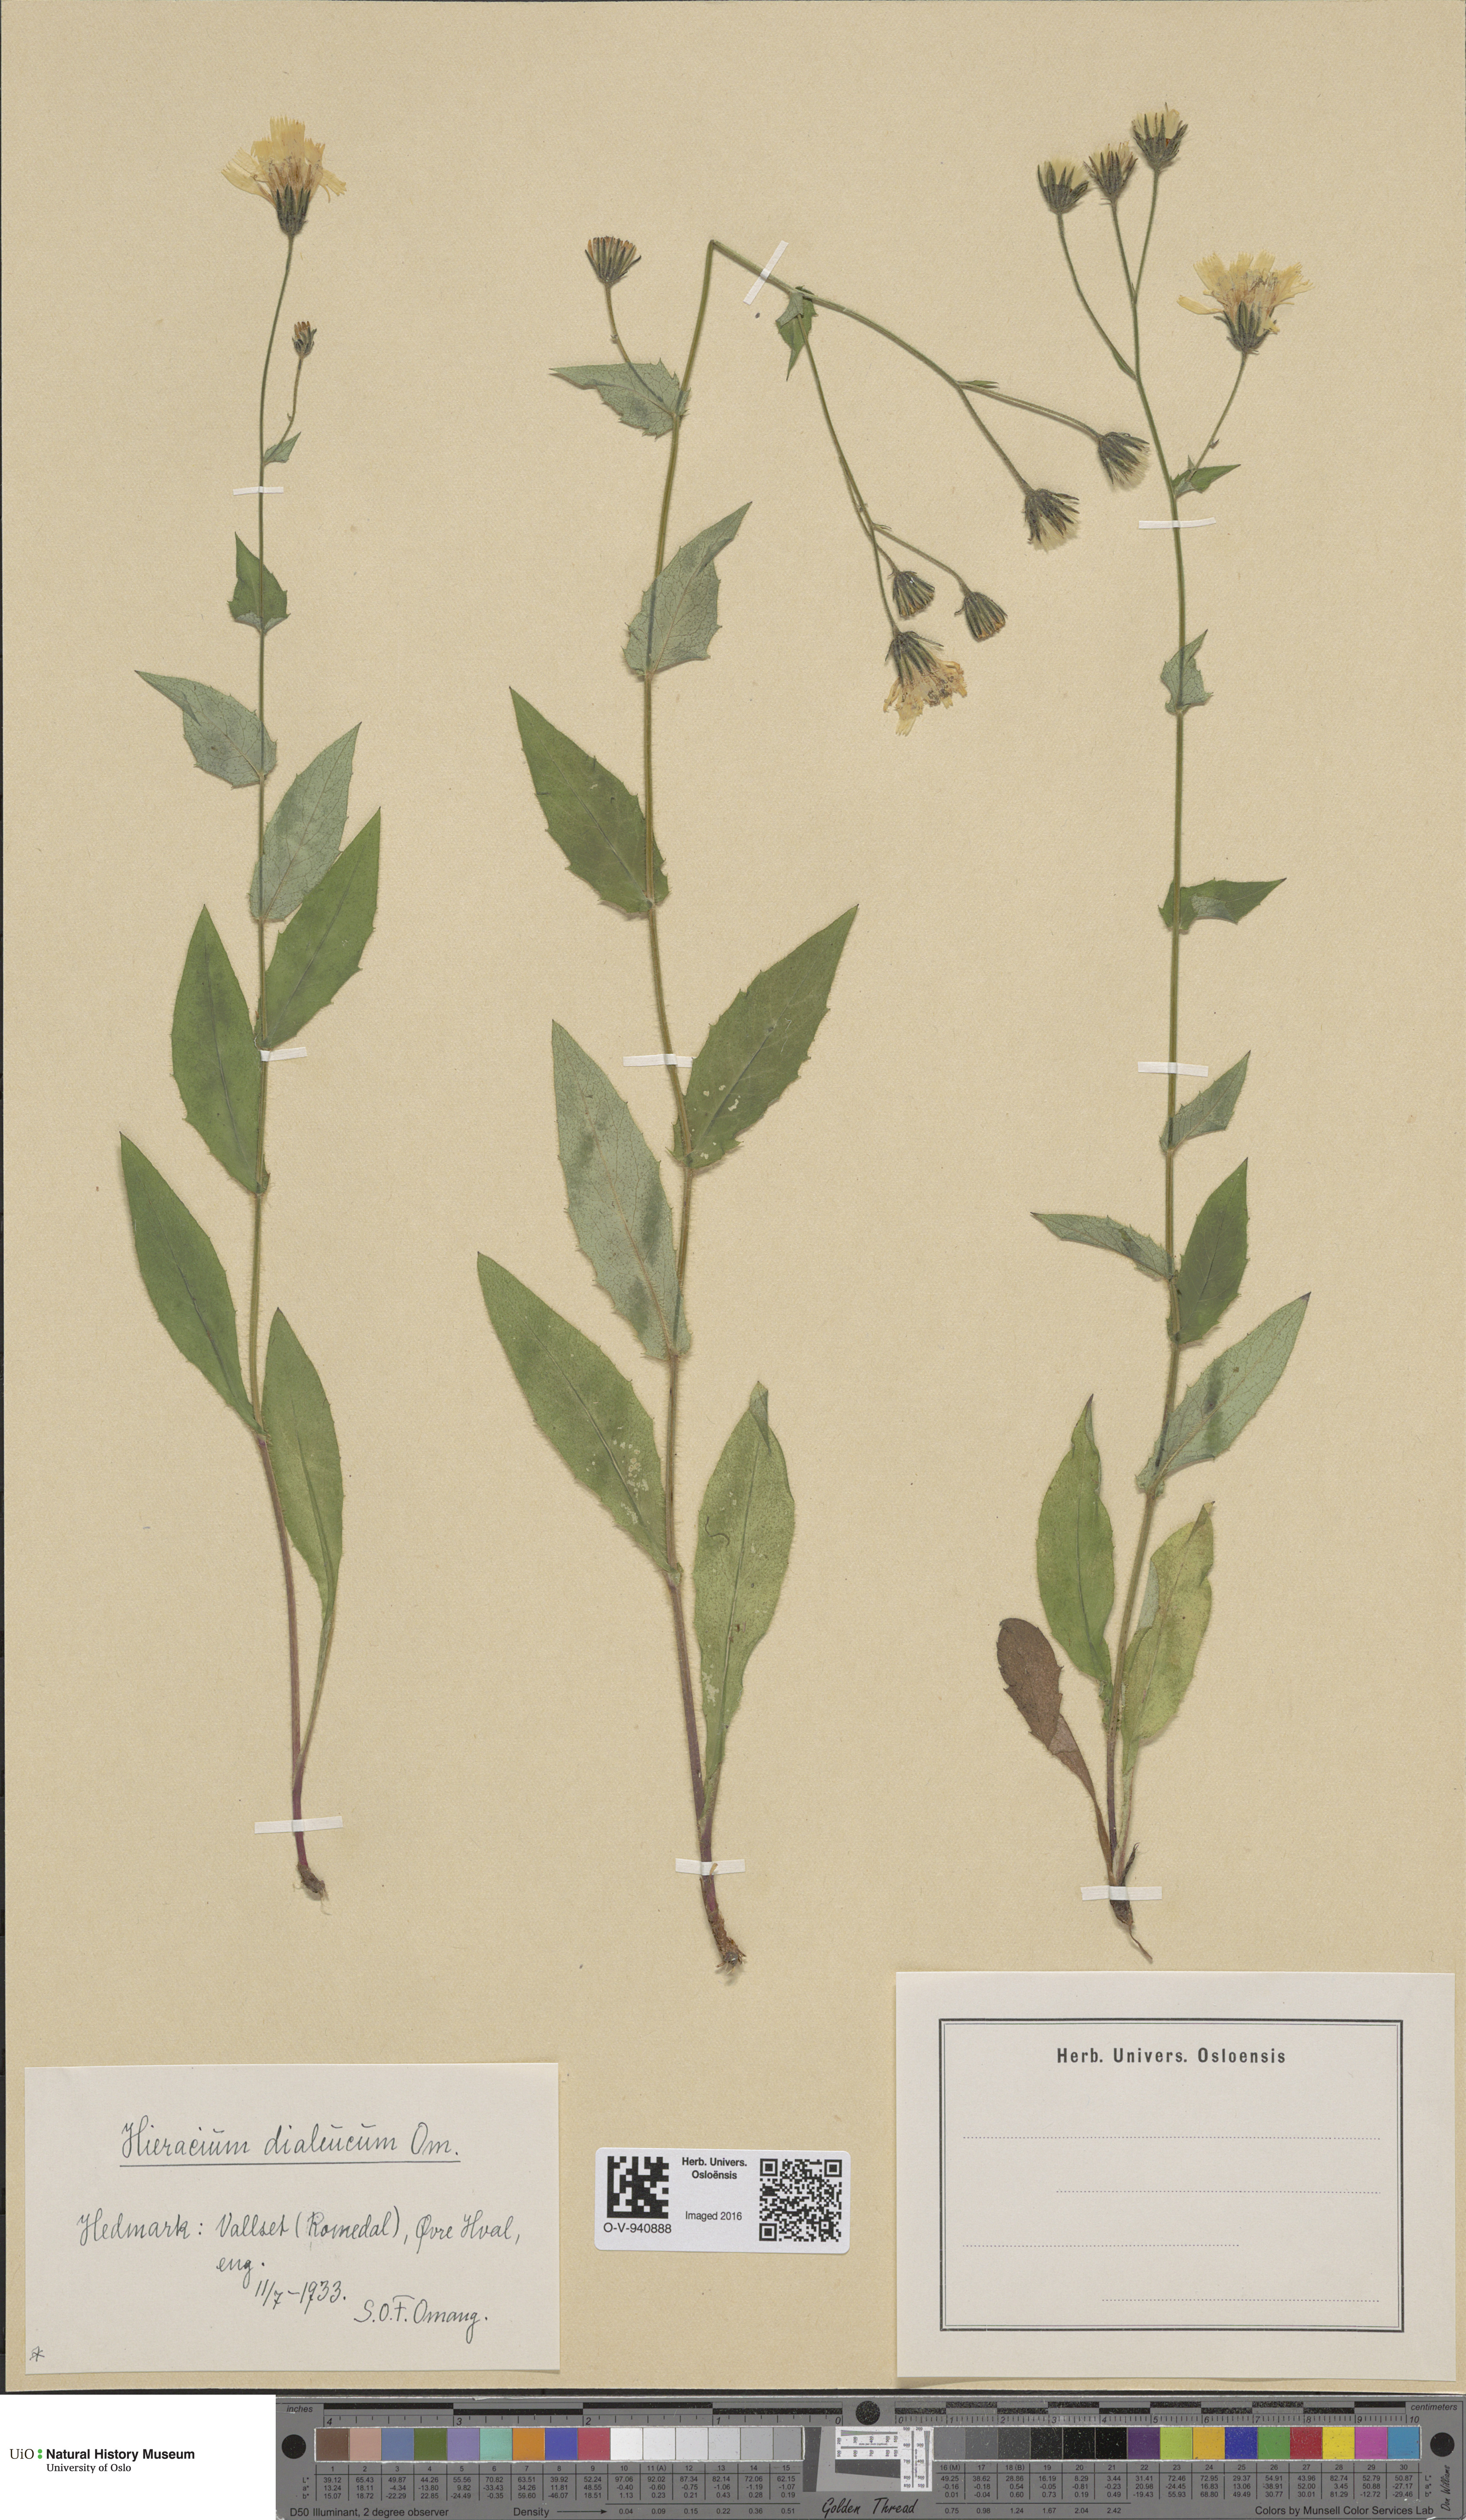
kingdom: Plantae
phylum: Tracheophyta
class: Magnoliopsida
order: Asterales
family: Asteraceae
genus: Hieracium
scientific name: Hieracium
